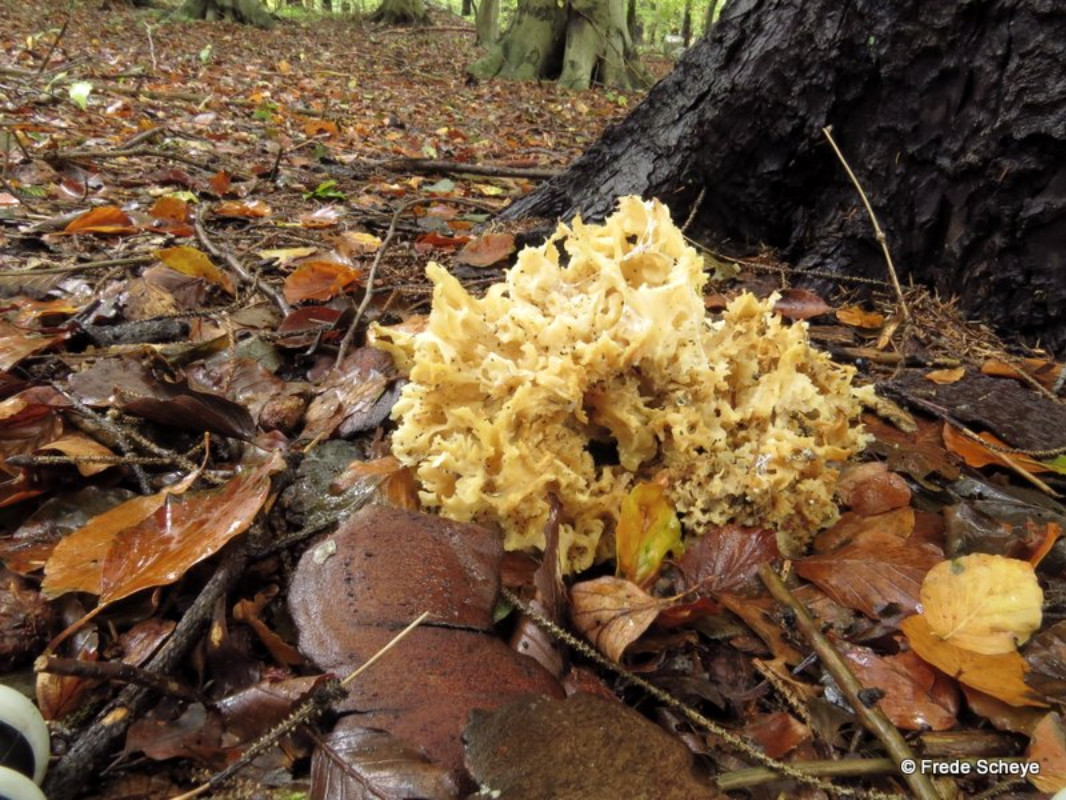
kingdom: Fungi
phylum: Basidiomycota
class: Agaricomycetes
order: Polyporales
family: Sparassidaceae
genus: Sparassis
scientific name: Sparassis crispa
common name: kruset blomkålssvamp
